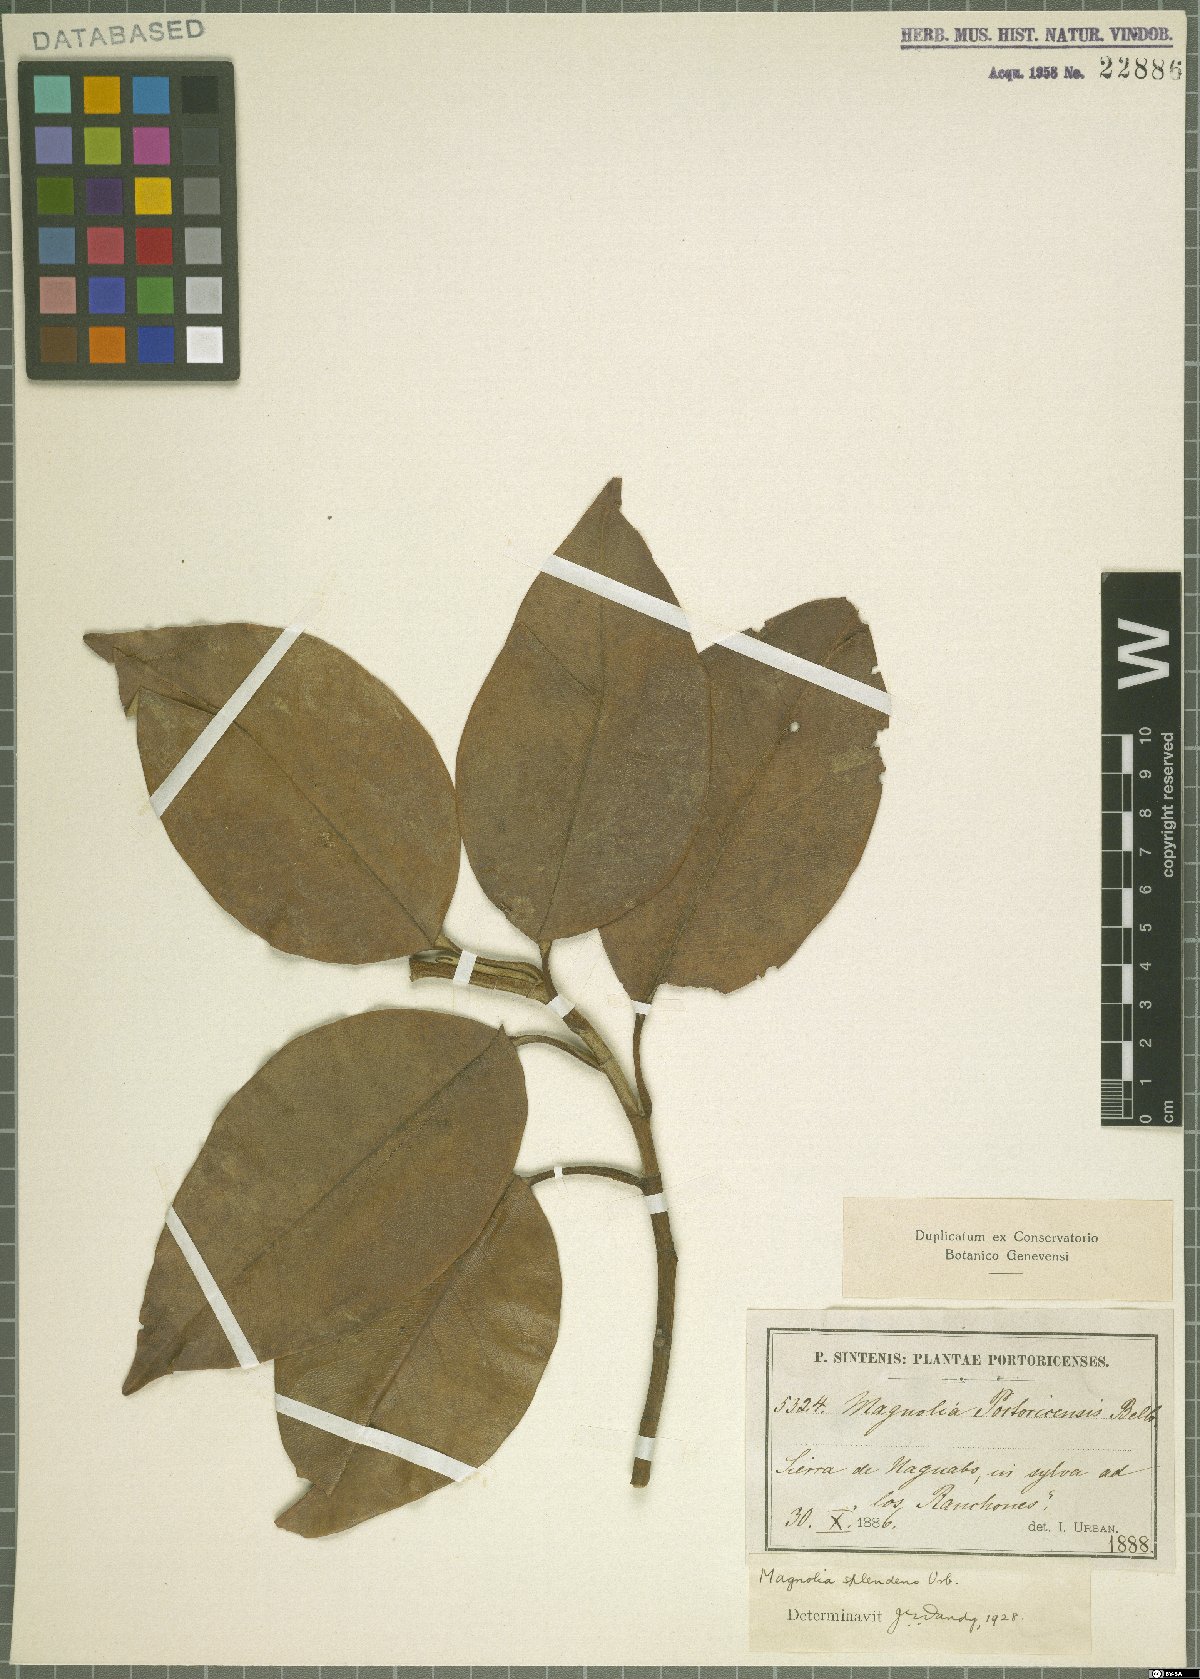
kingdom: Plantae
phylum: Tracheophyta
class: Magnoliopsida
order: Magnoliales
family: Magnoliaceae
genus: Magnolia
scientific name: Magnolia portoricensis
